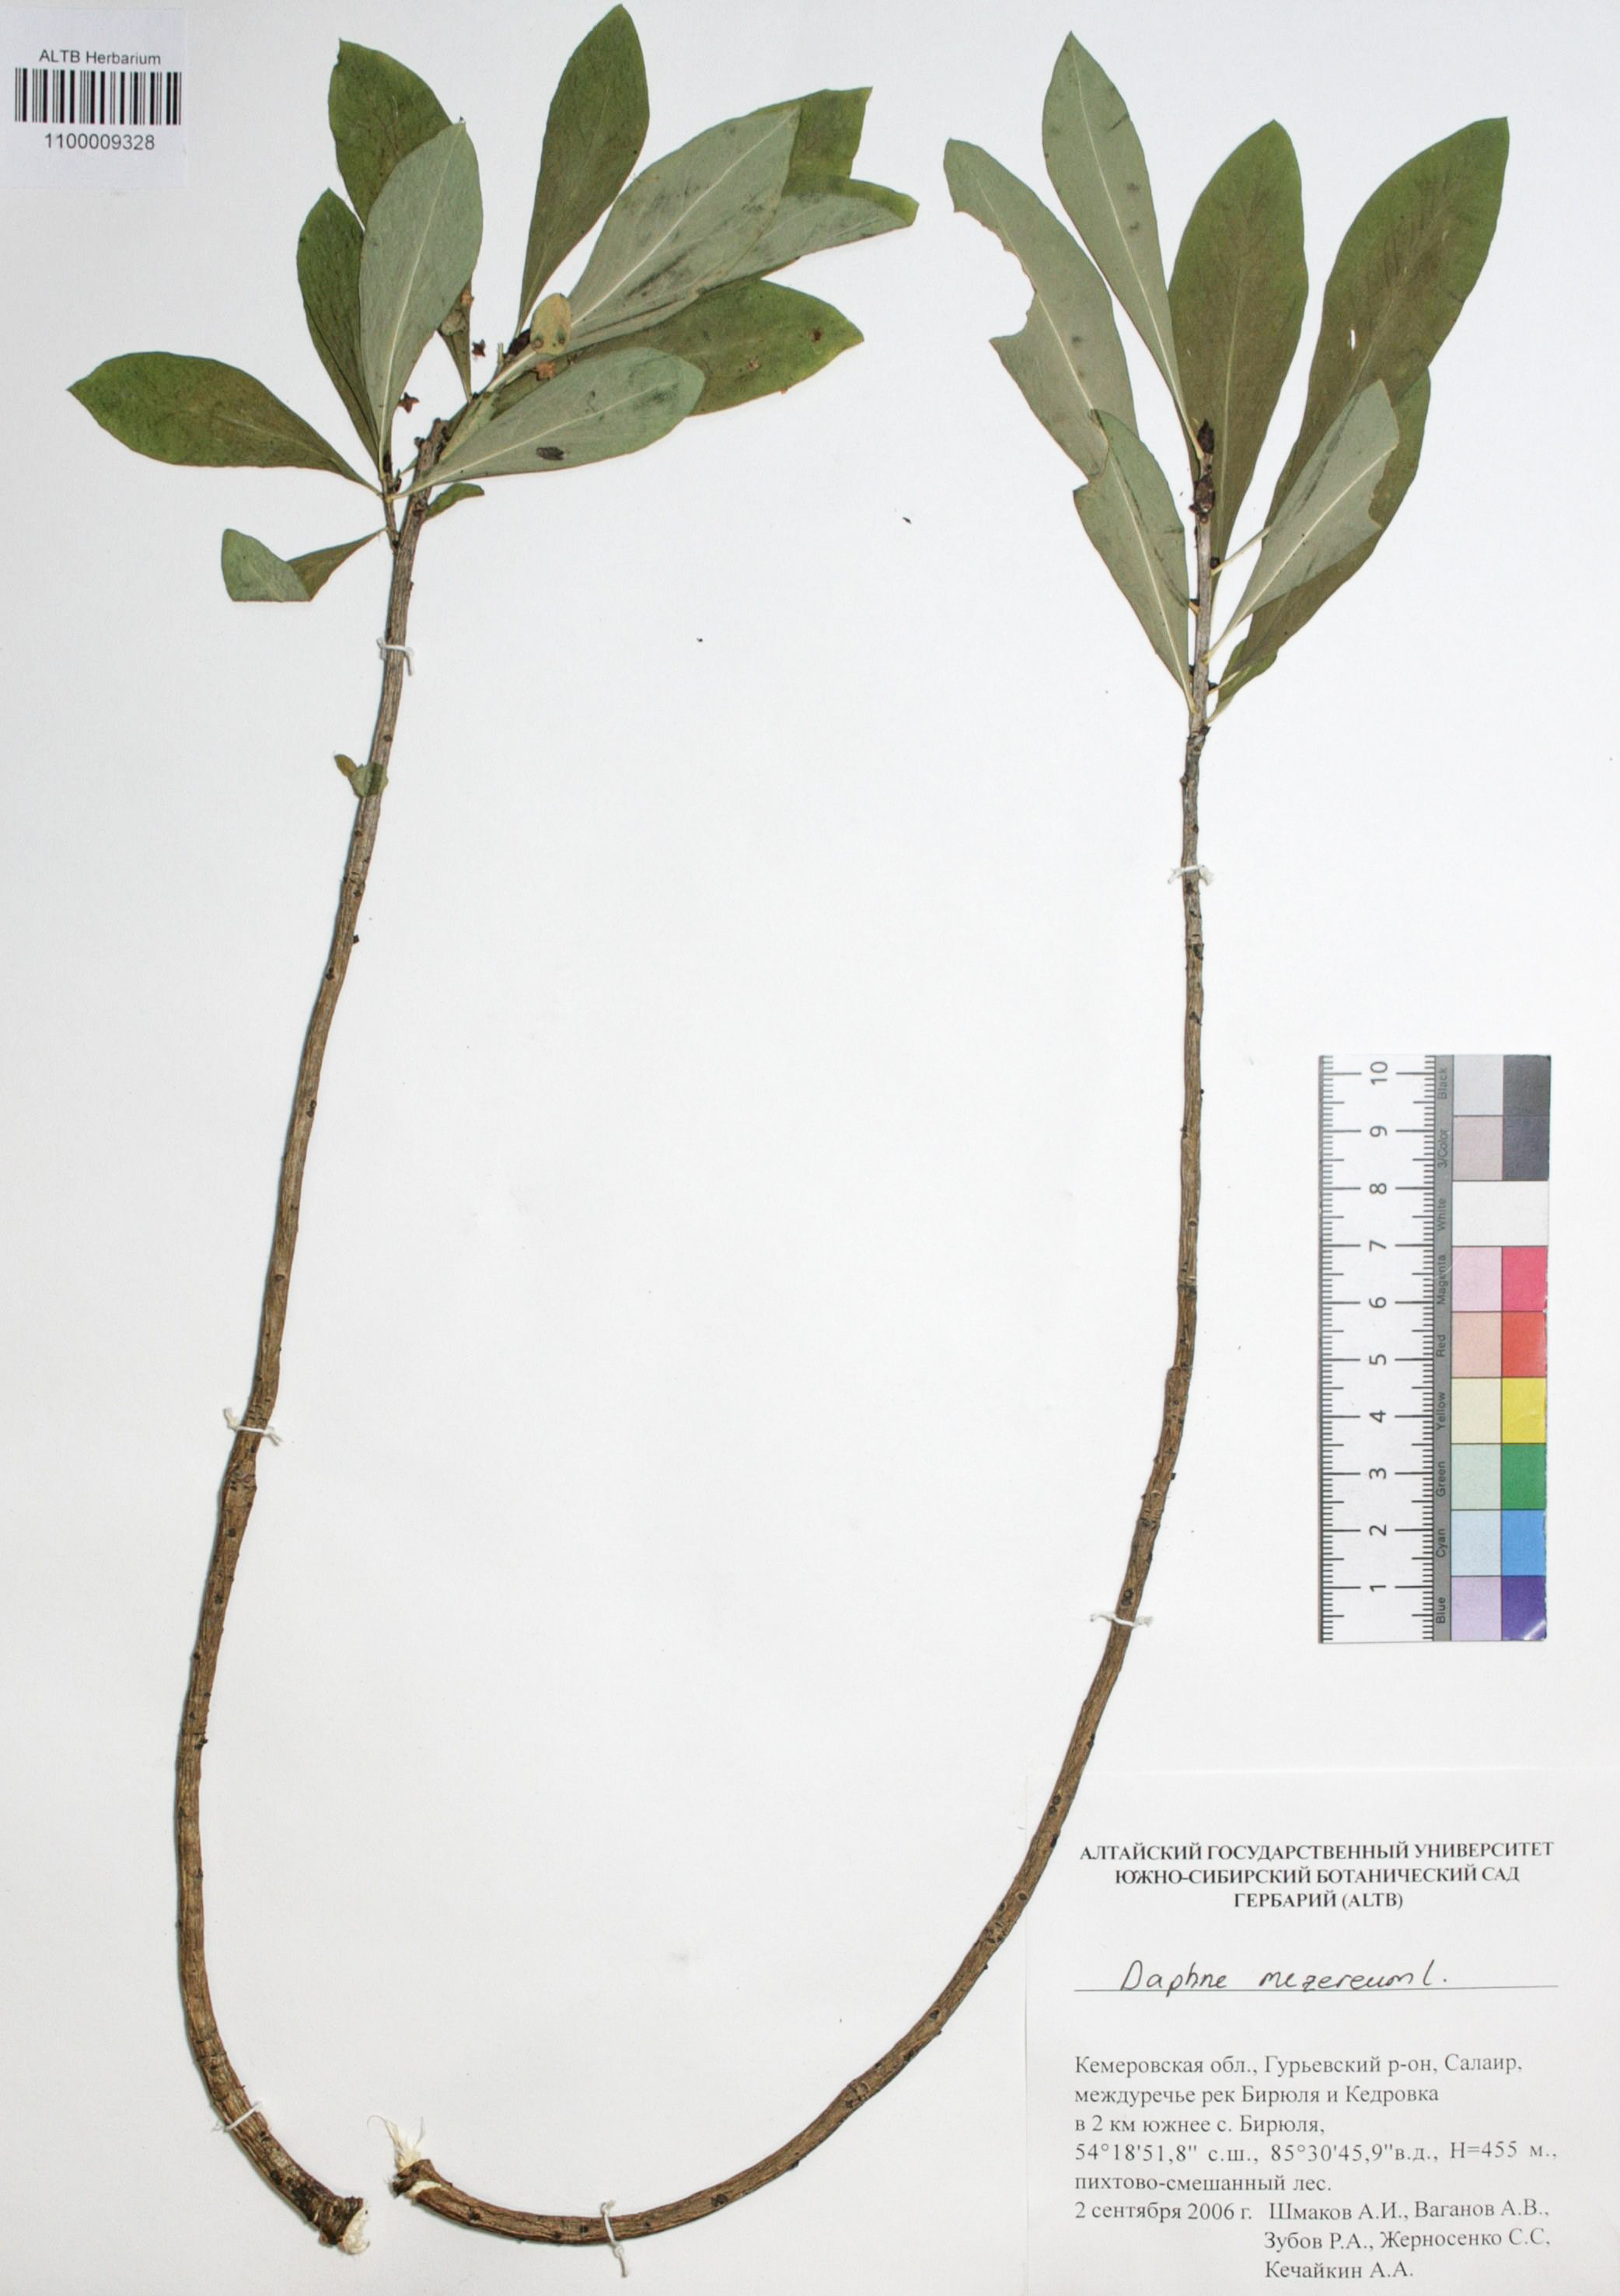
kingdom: Plantae
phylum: Tracheophyta
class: Magnoliopsida
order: Malvales
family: Thymelaeaceae
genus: Daphne
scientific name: Daphne mezereum
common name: Mezereon
